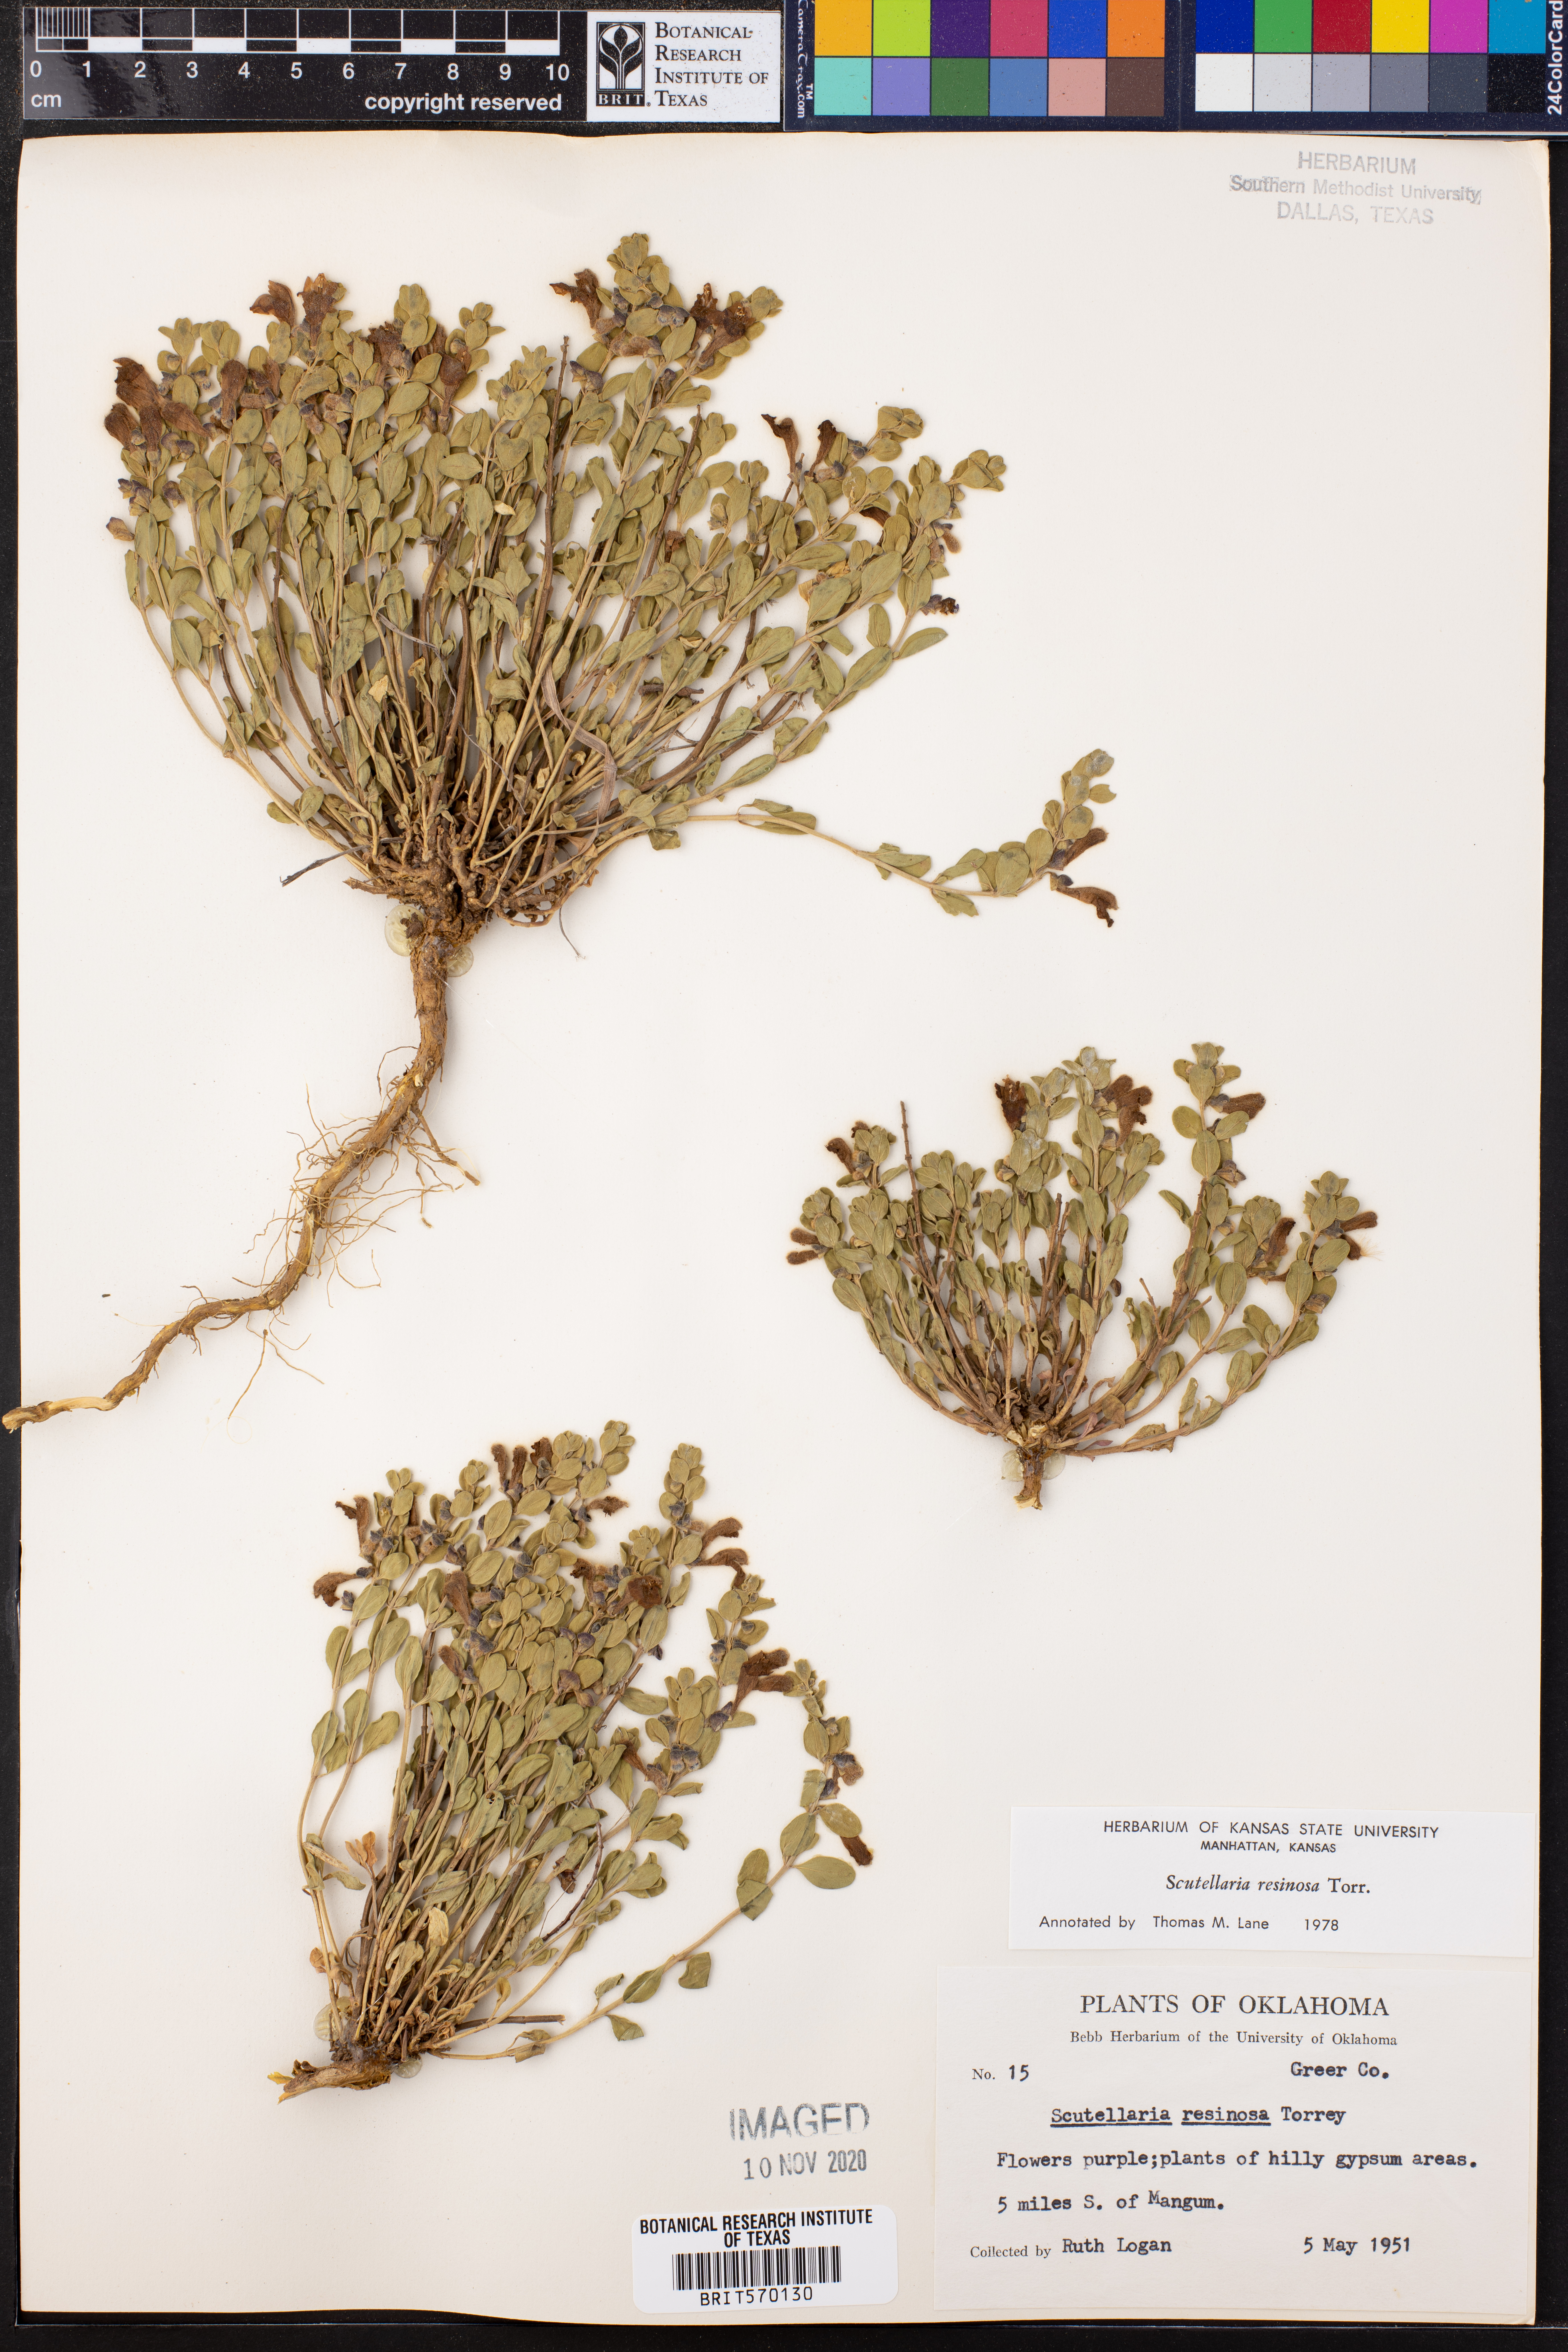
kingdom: Plantae
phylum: Tracheophyta
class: Magnoliopsida
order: Lamiales
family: Lamiaceae
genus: Scutellaria
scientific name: Scutellaria resinosa
